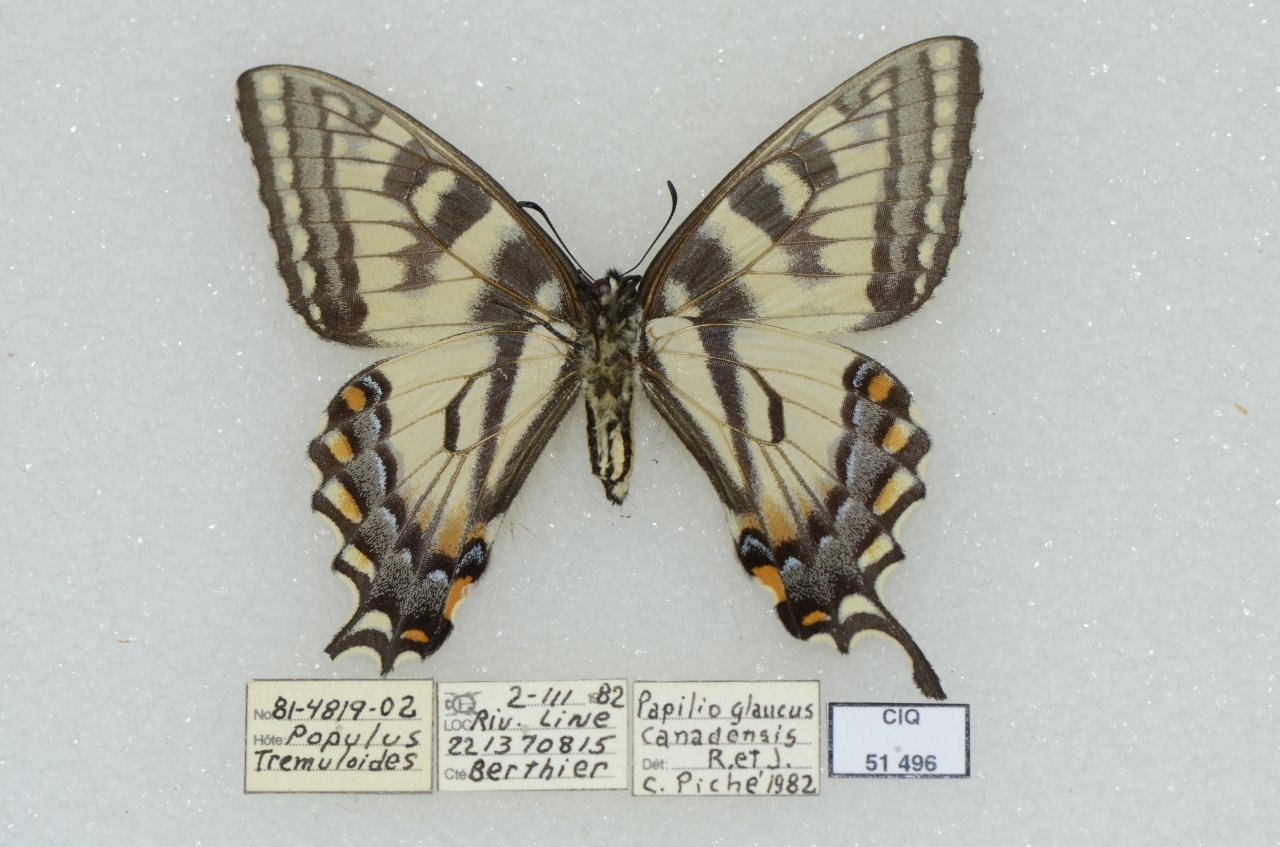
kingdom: Animalia
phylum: Arthropoda
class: Insecta
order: Lepidoptera
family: Papilionidae
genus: Pterourus
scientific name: Pterourus canadensis
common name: Canadian Tiger Swallowtail
